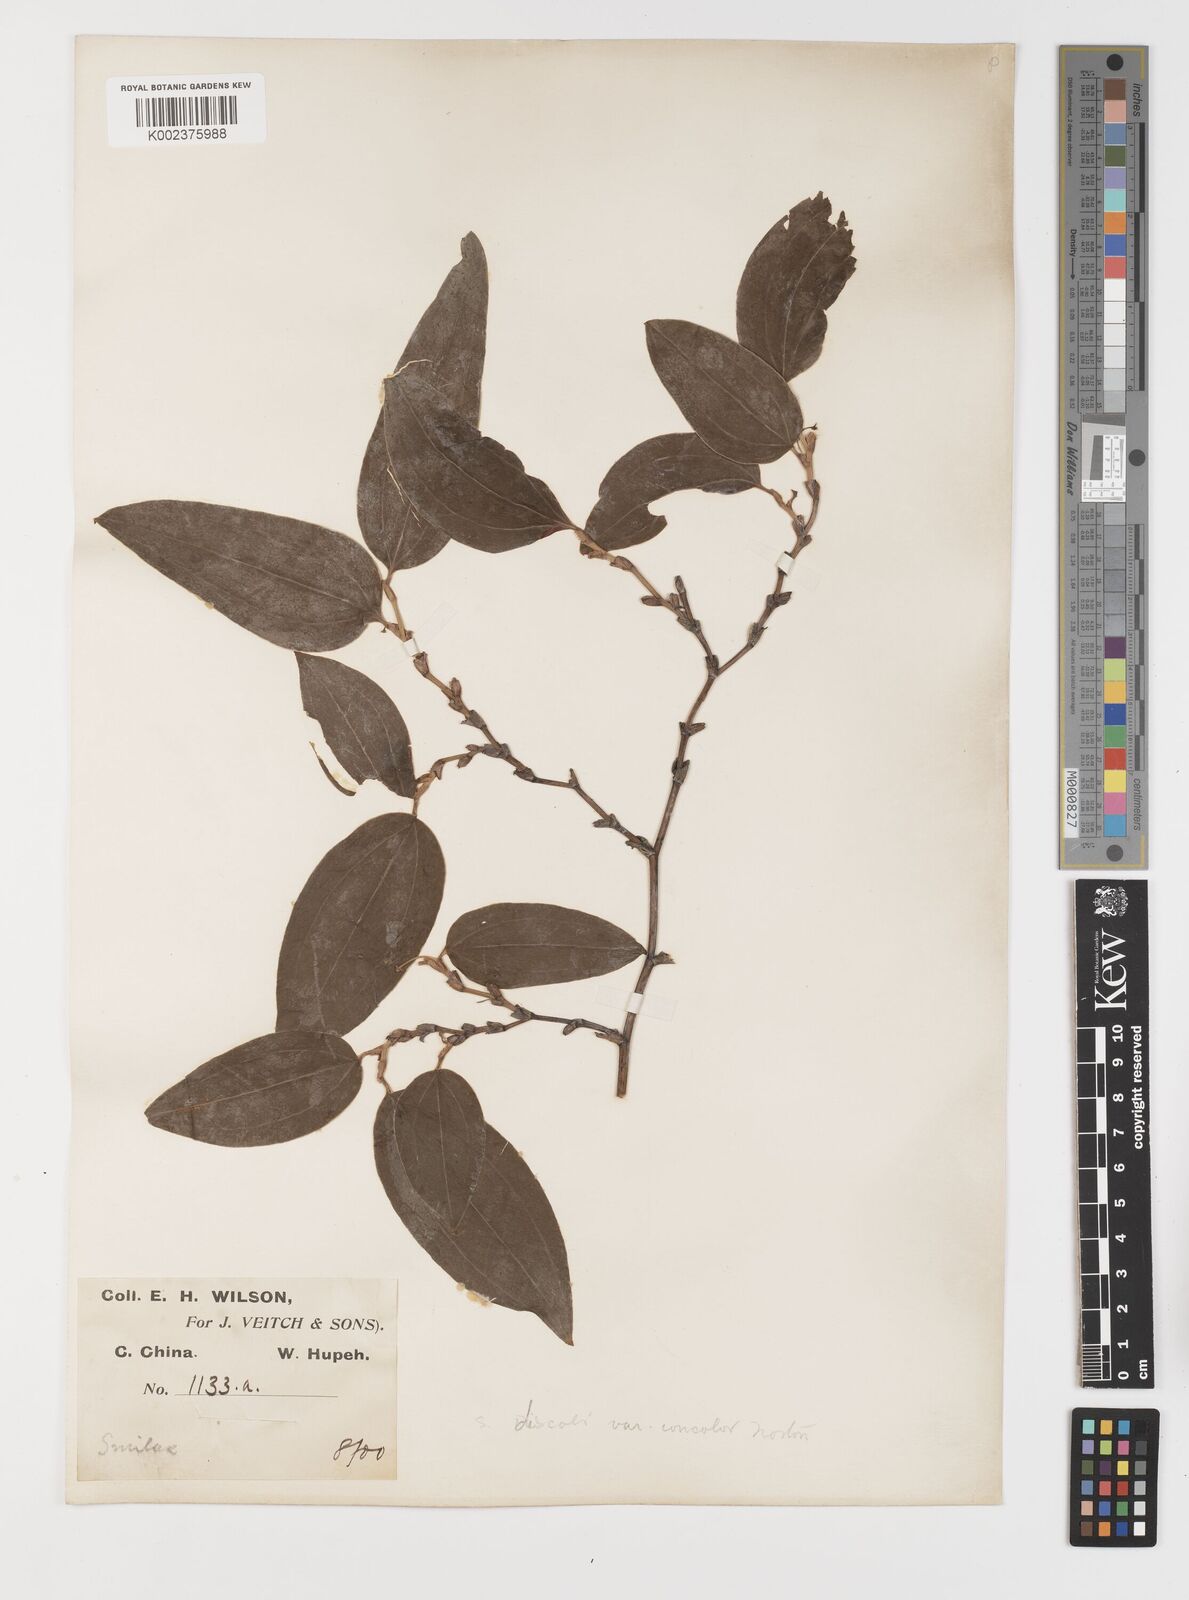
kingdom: Plantae
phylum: Tracheophyta
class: Liliopsida
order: Liliales
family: Smilacaceae
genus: Smilax
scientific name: Smilax discotis
